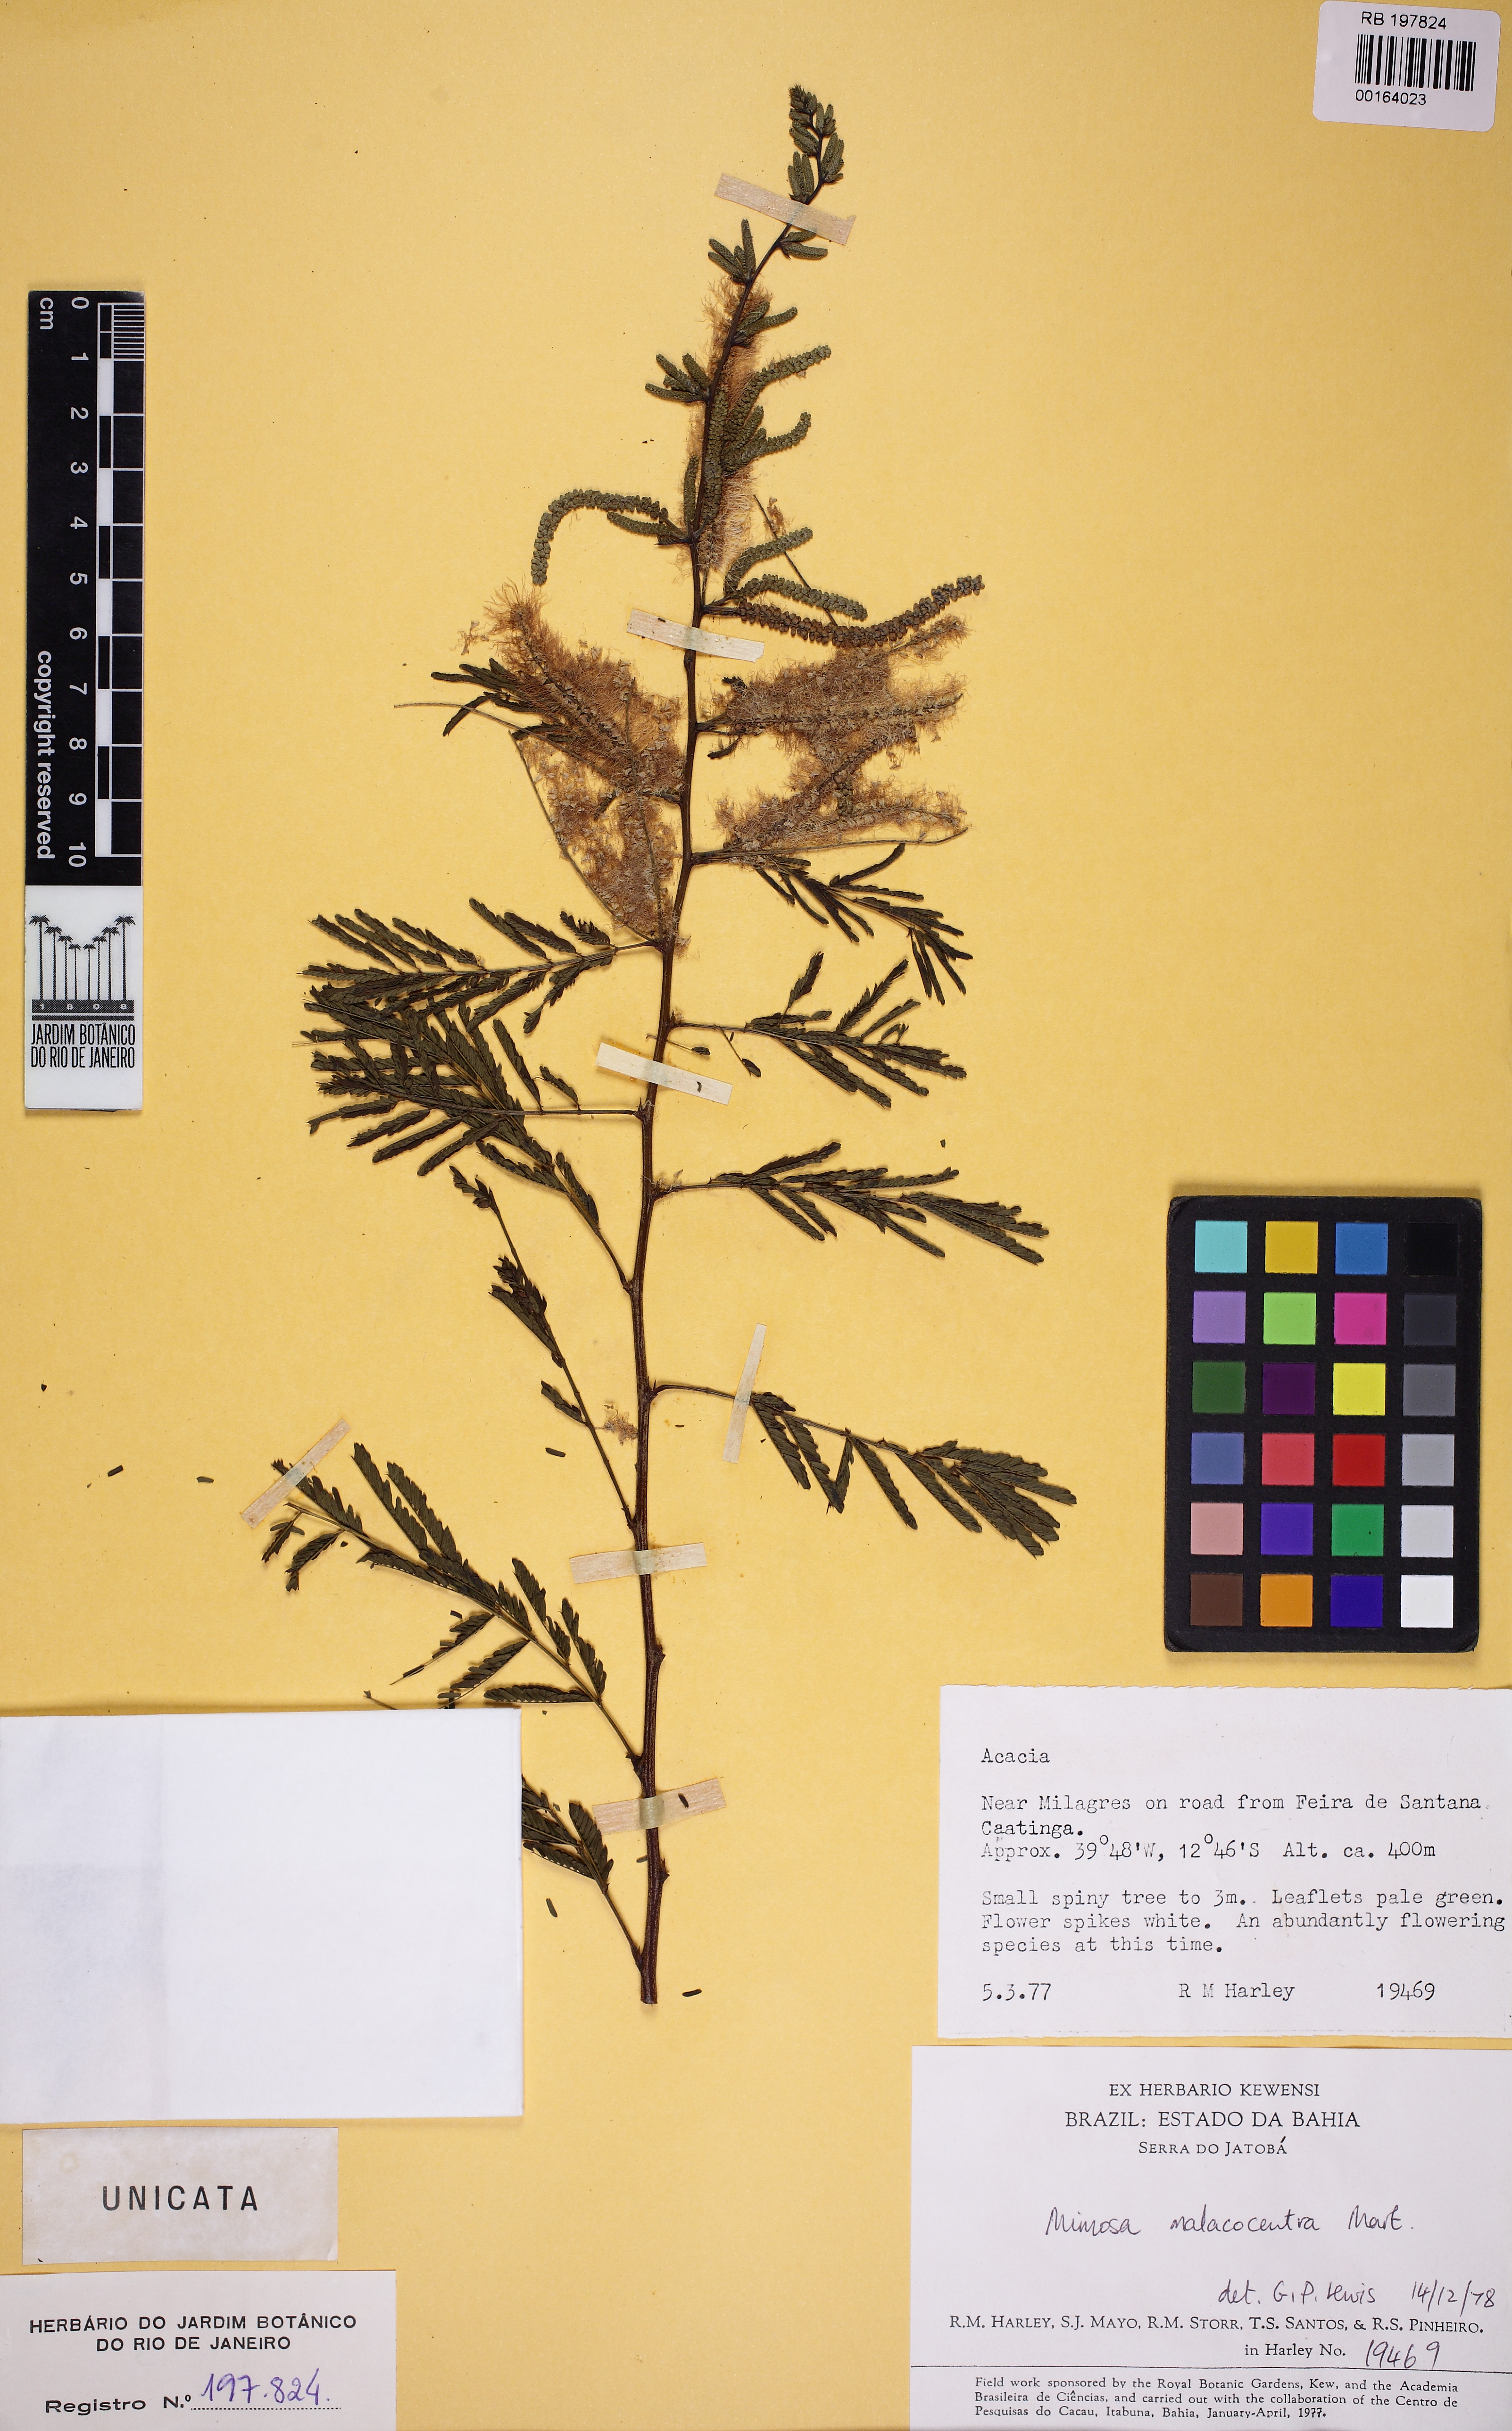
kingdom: Plantae
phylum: Tracheophyta
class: Magnoliopsida
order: Fabales
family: Fabaceae
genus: Mimosa
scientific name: Mimosa arenosa
